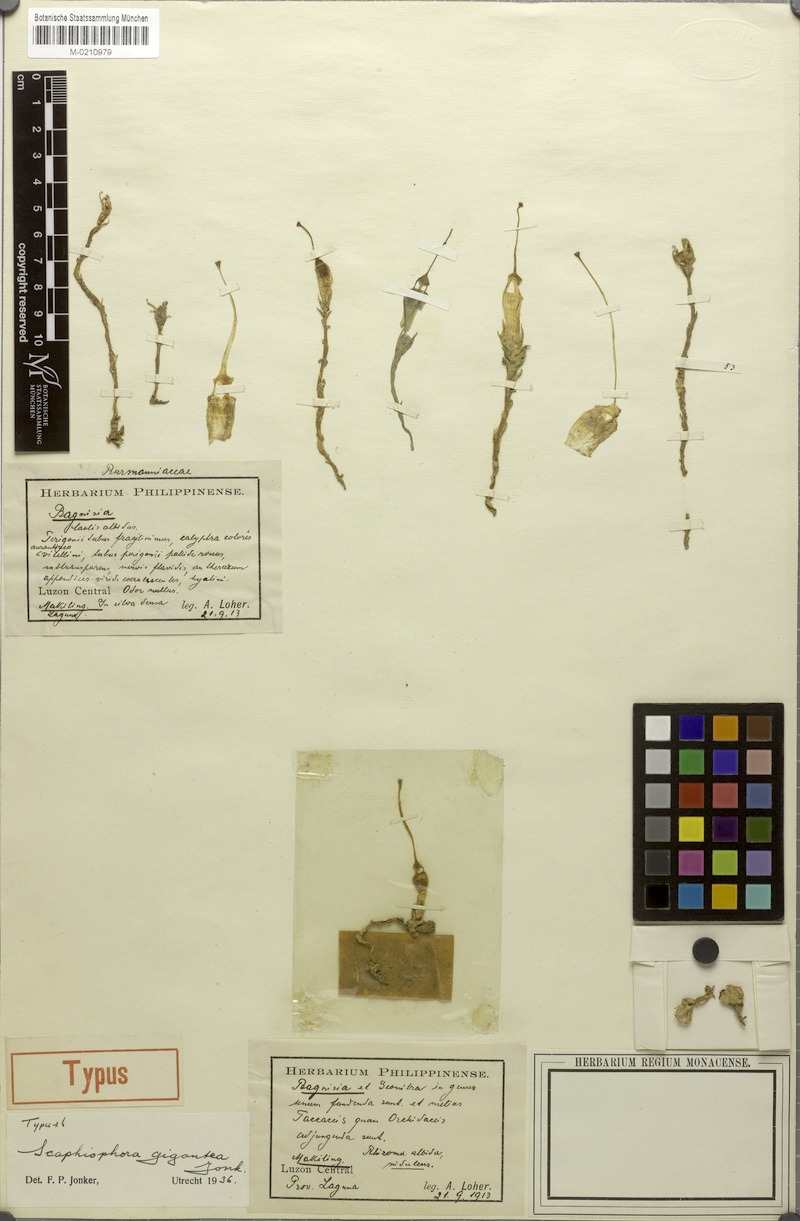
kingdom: Plantae
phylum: Tracheophyta
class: Liliopsida
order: Dioscoreales
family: Burmanniaceae
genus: Thismia
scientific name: Thismia gigantea
